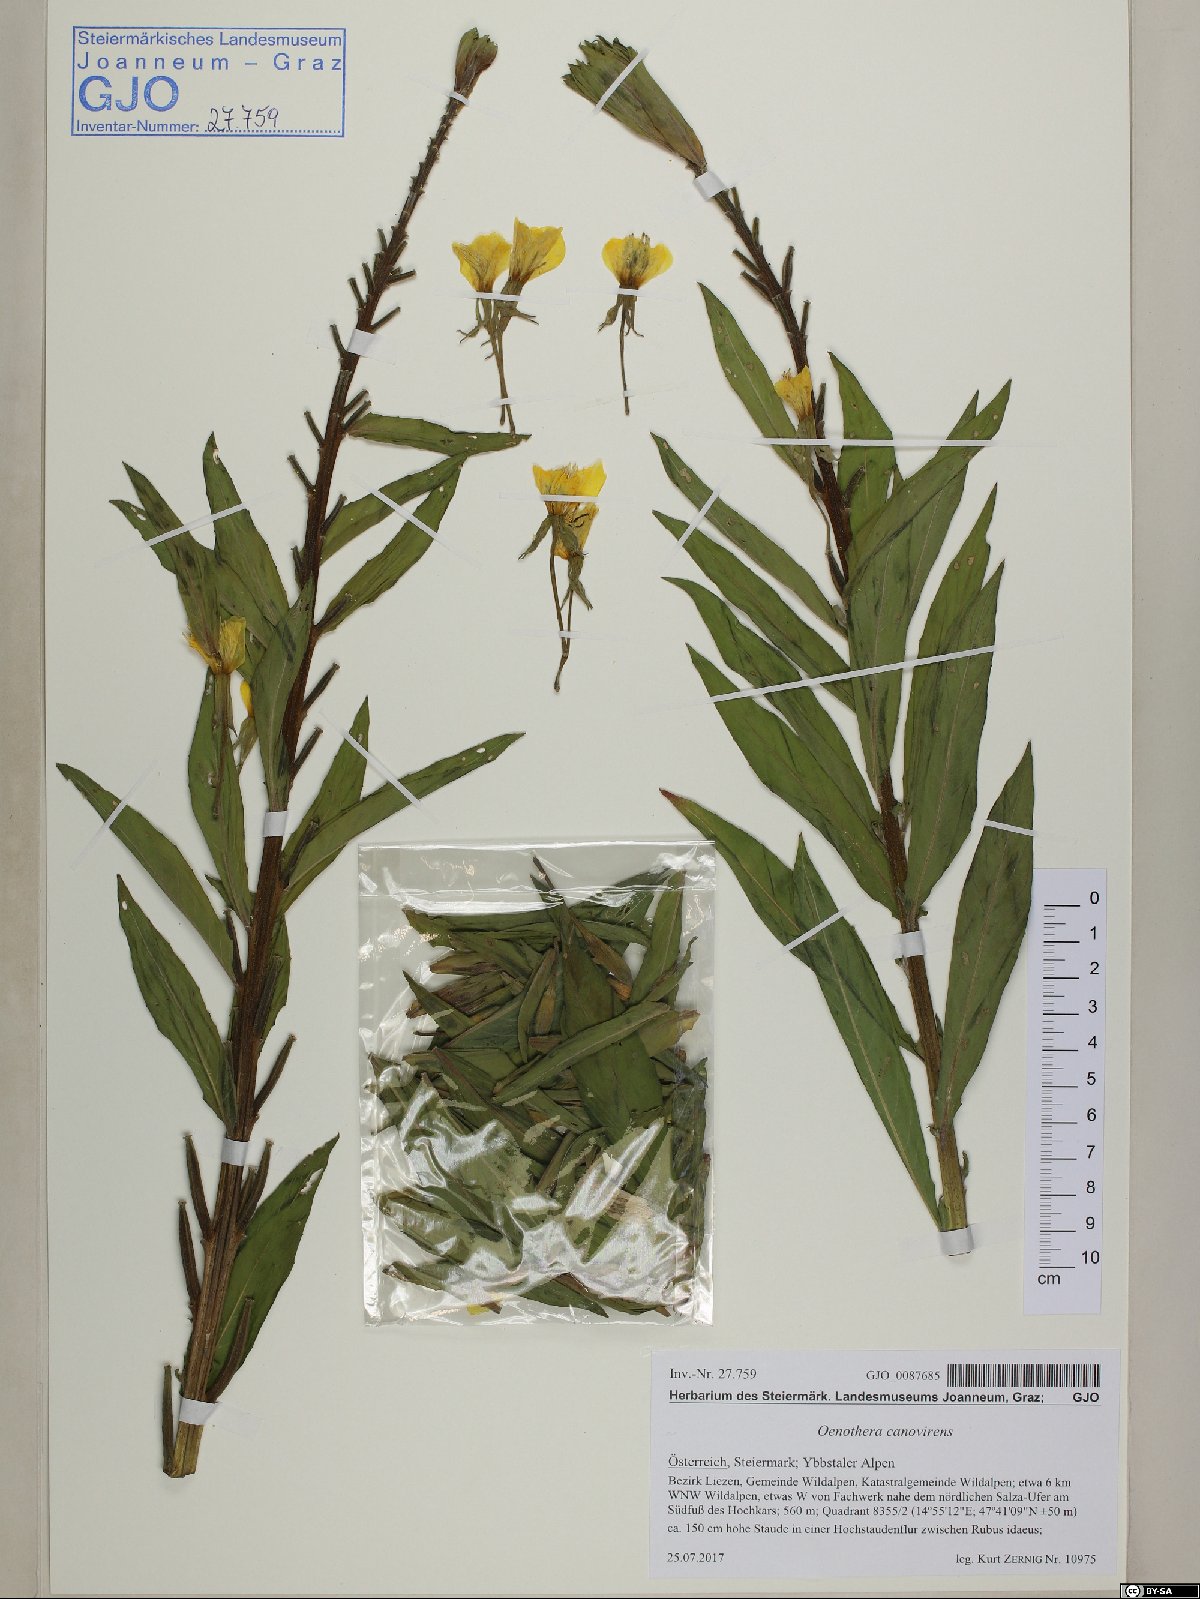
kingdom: Plantae
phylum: Tracheophyta
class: Magnoliopsida
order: Myrtales
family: Onagraceae
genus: Oenothera
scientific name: Oenothera villosa
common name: Hairy evening-primrose
